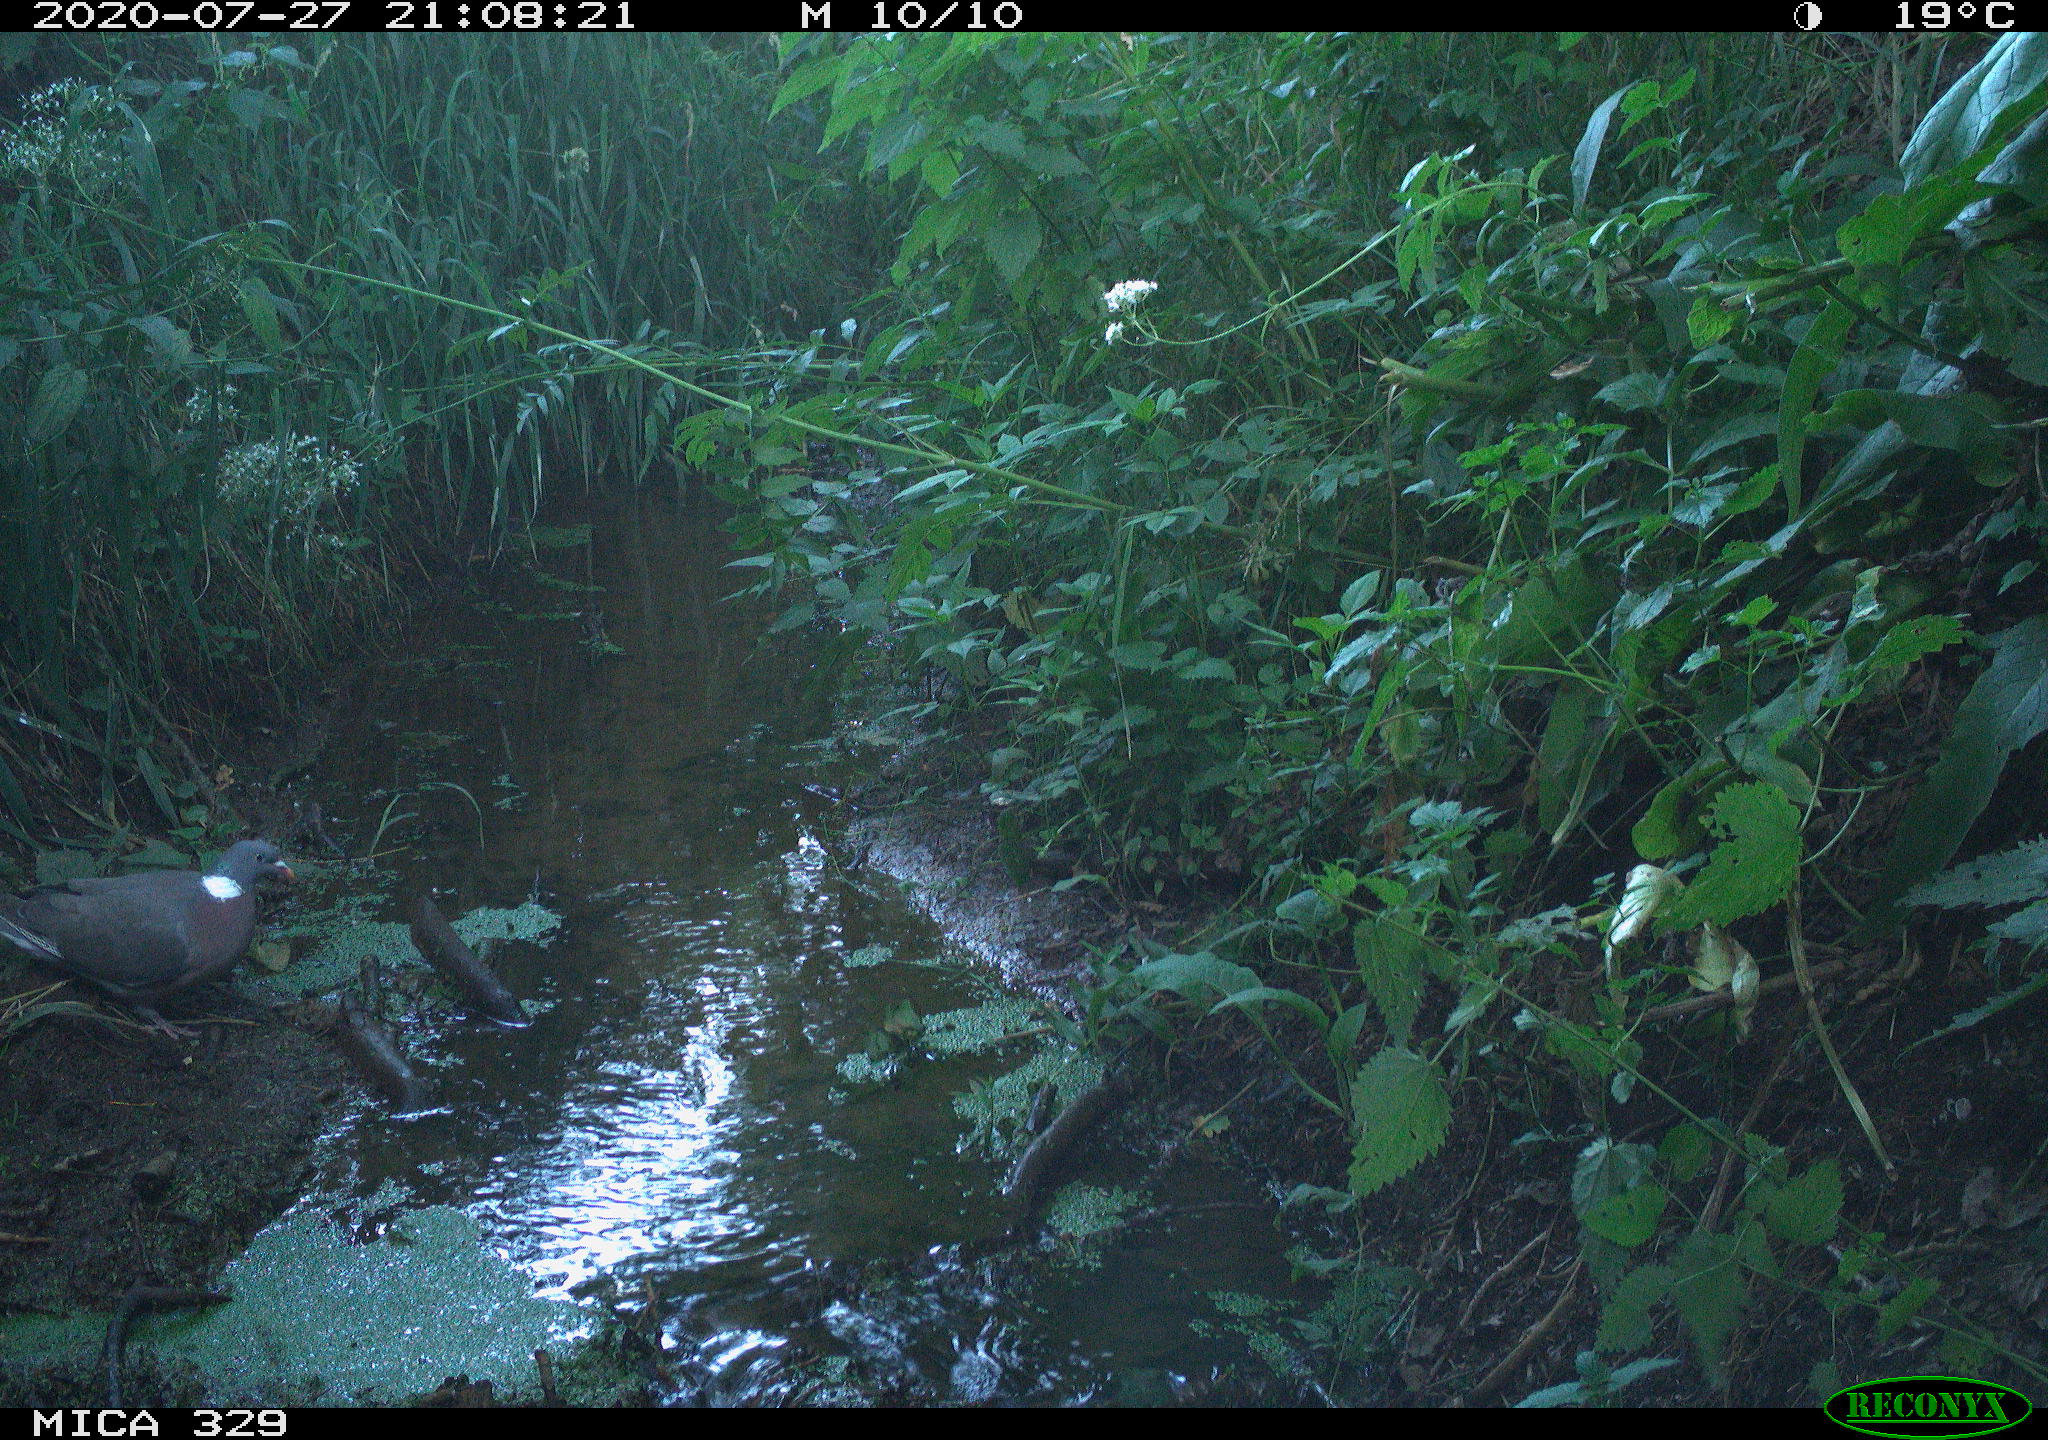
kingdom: Animalia
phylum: Chordata
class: Aves
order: Columbiformes
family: Columbidae
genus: Columba
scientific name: Columba palumbus
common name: Common wood pigeon
